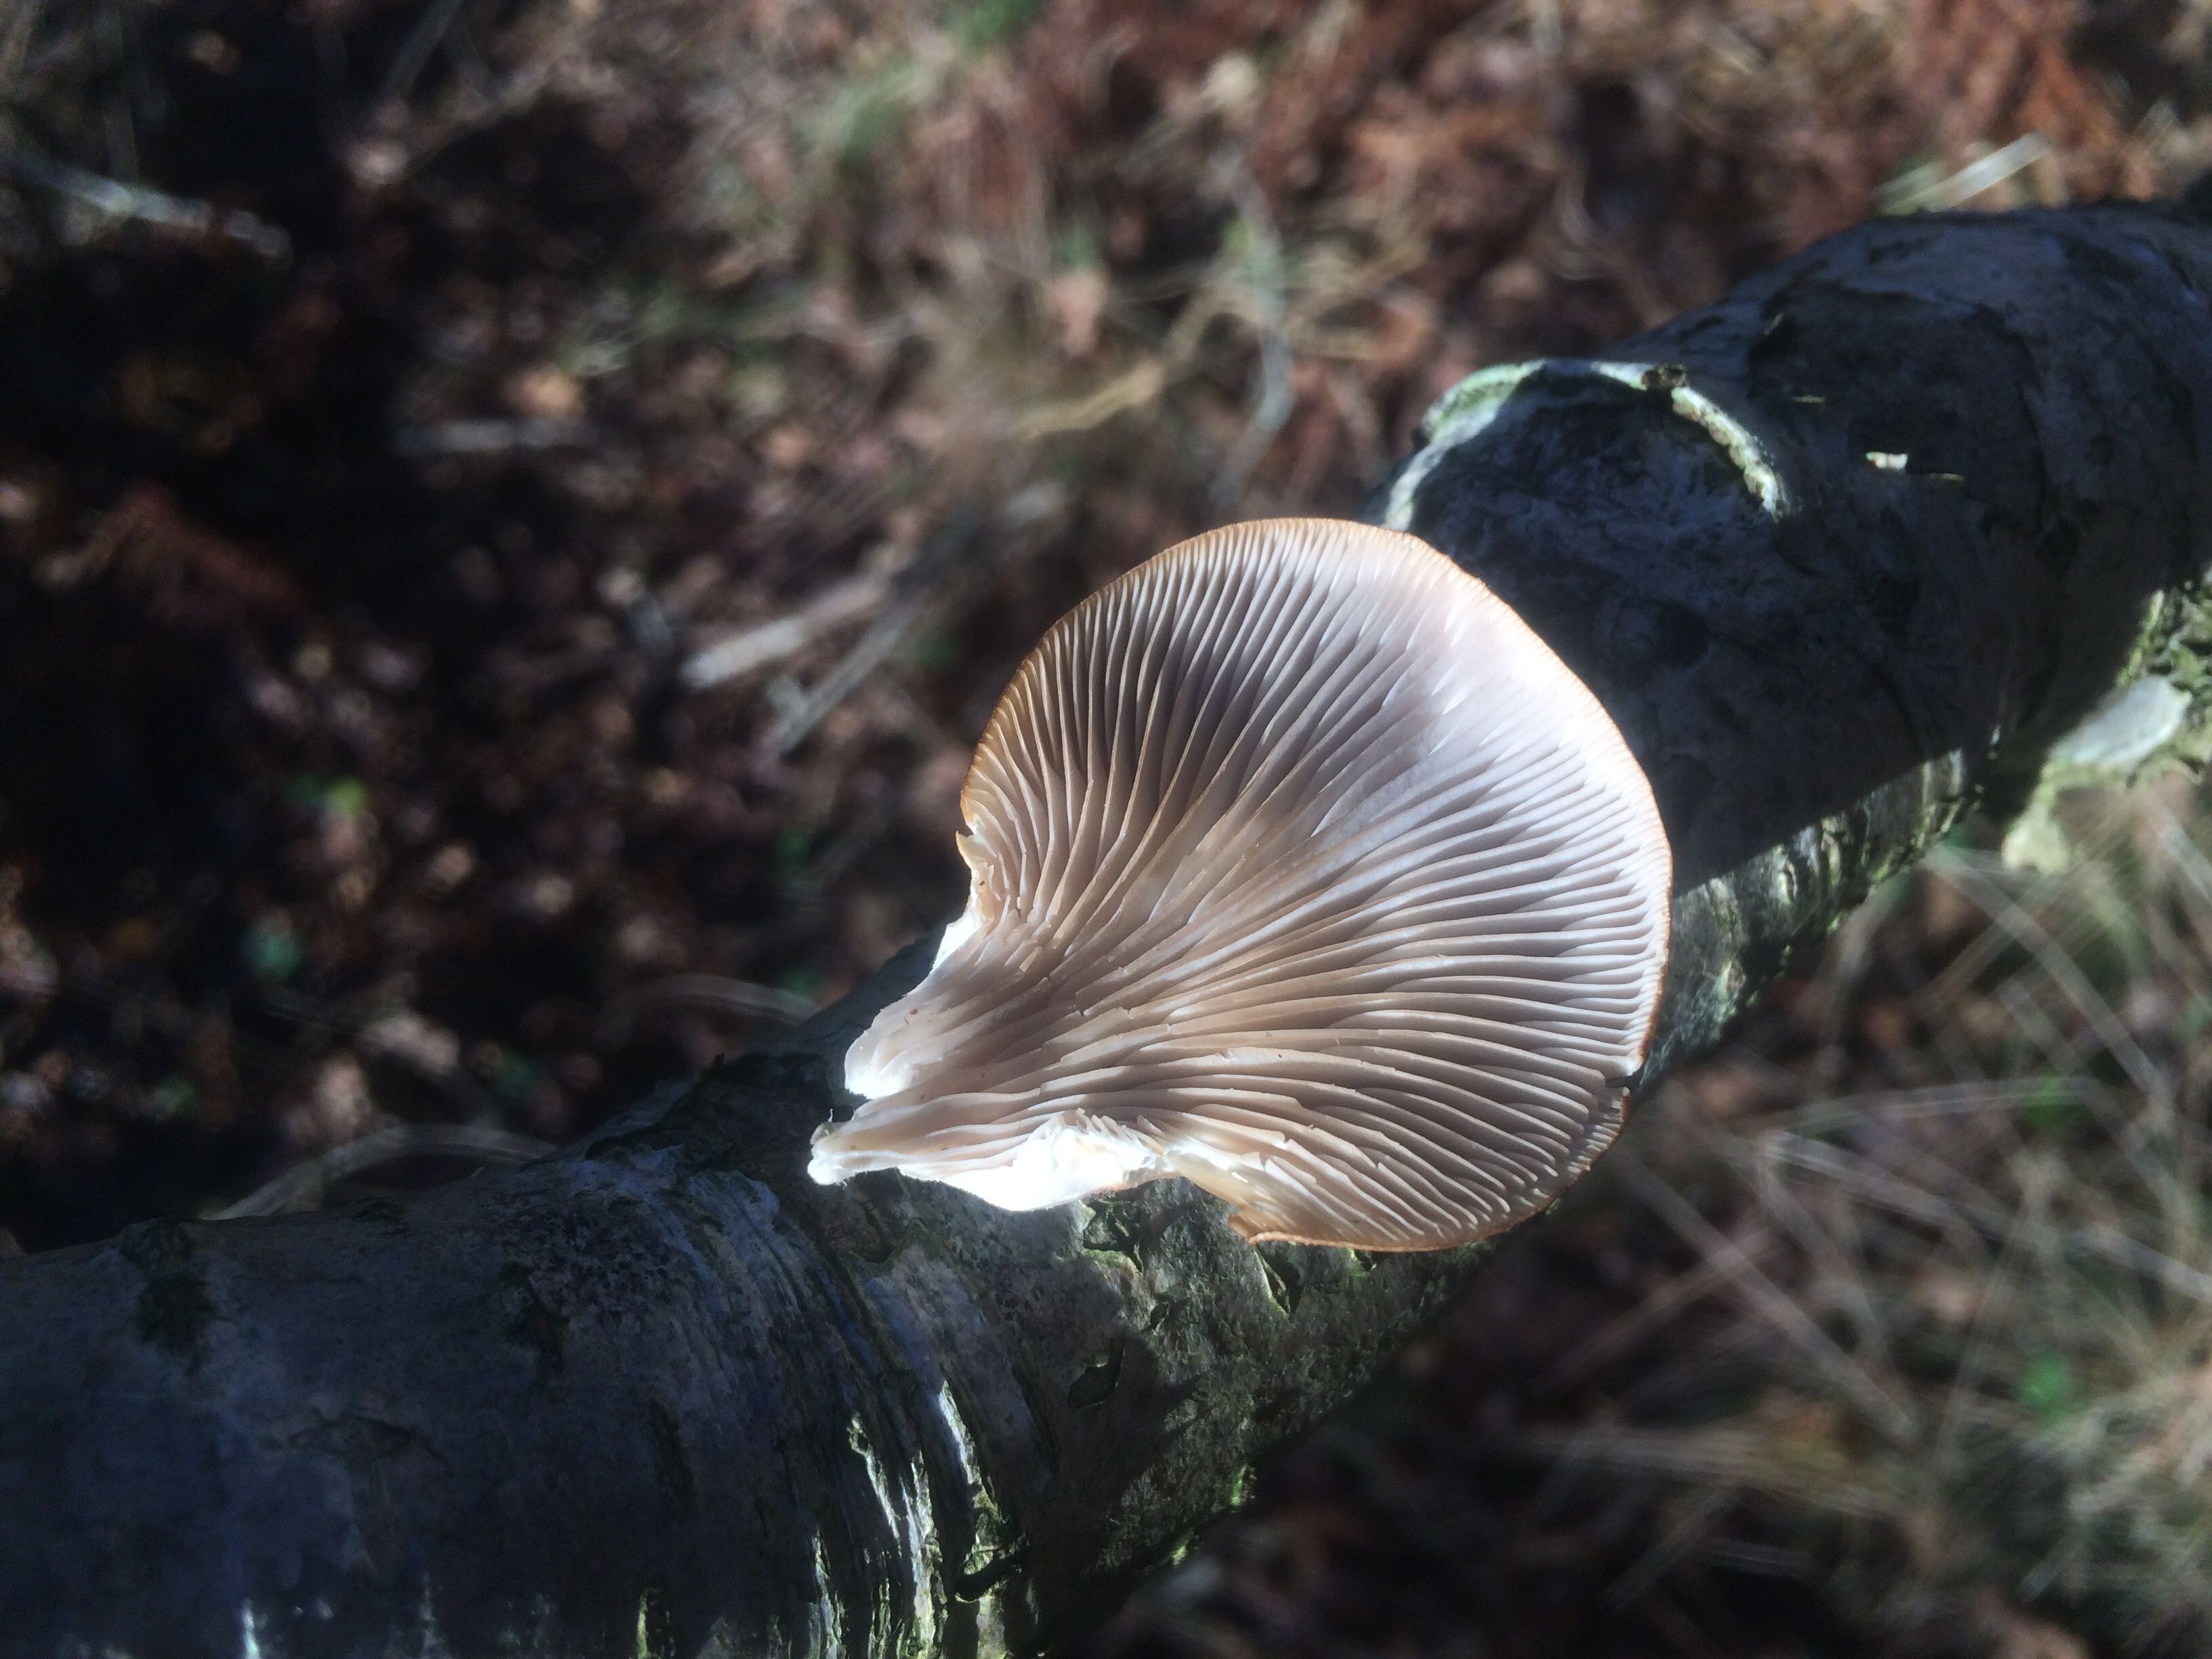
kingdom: Fungi
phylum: Basidiomycota
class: Agaricomycetes
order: Agaricales
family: Pleurotaceae
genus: Pleurotus
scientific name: Pleurotus ostreatus
